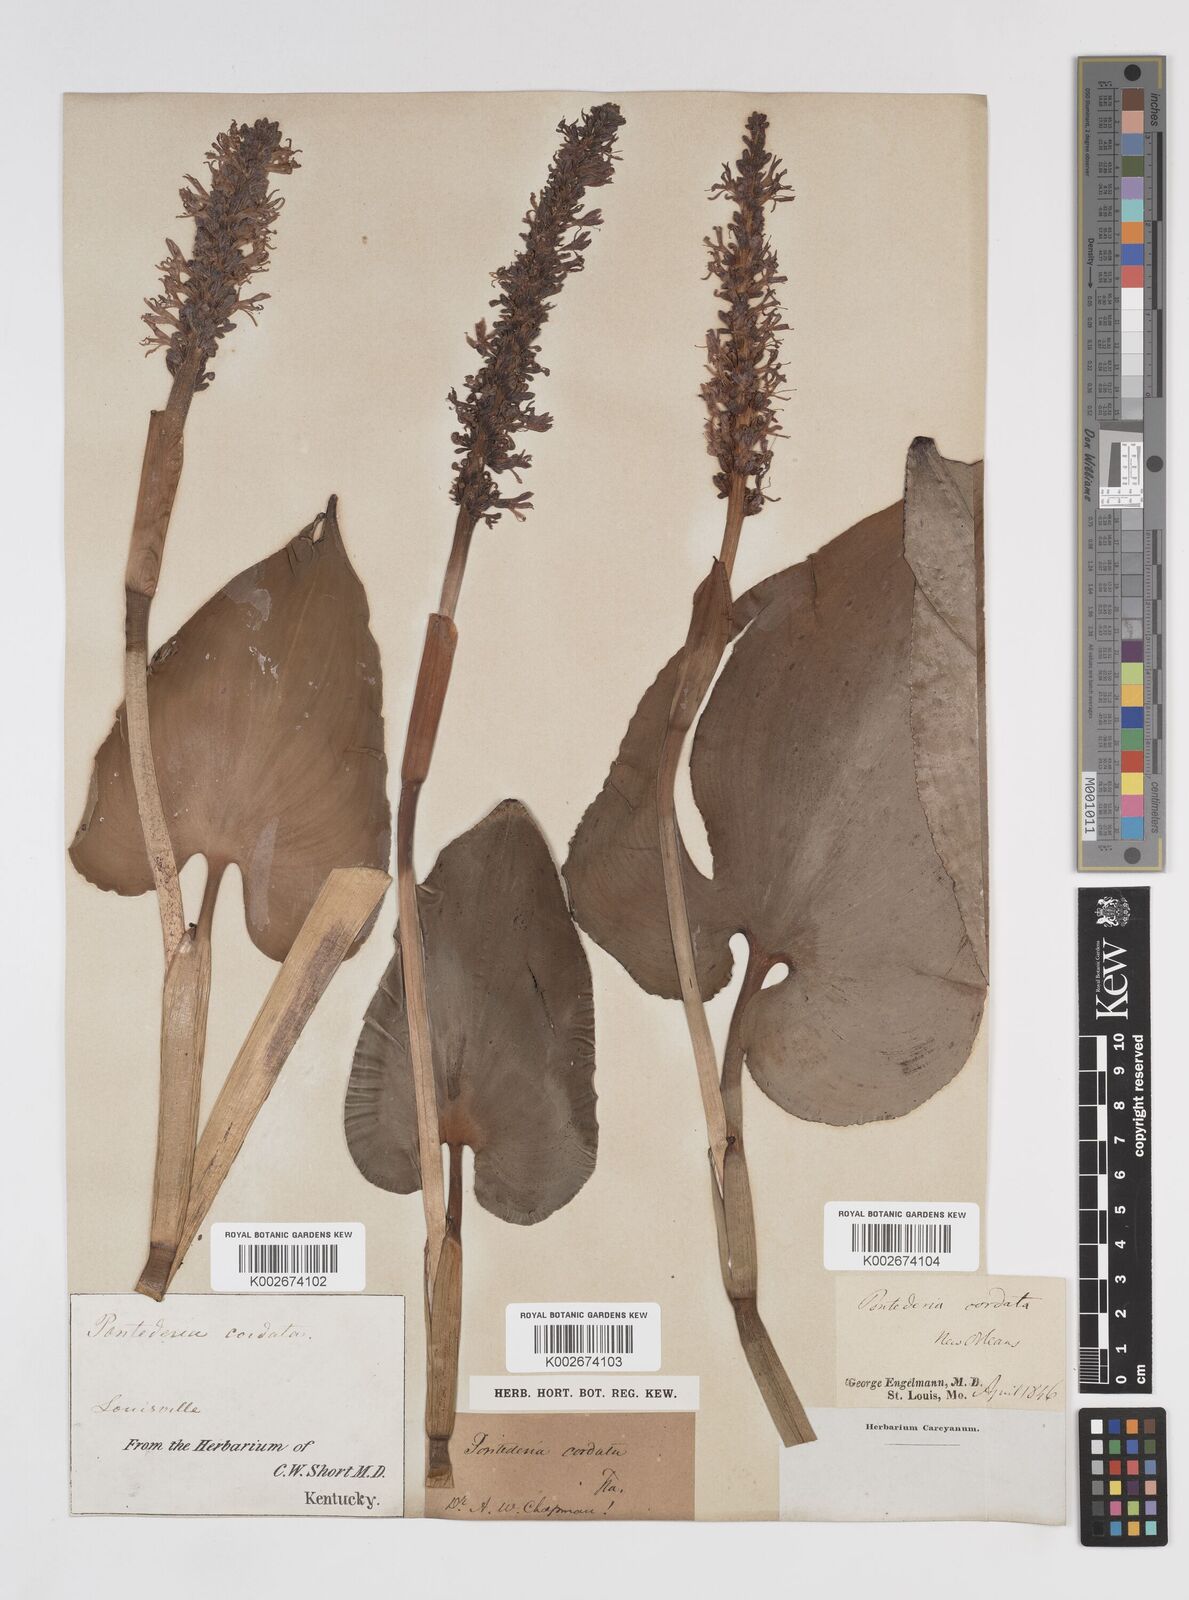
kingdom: Plantae
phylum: Tracheophyta
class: Liliopsida
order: Commelinales
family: Pontederiaceae
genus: Pontederia
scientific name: Pontederia cordata
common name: Pickerelweed
